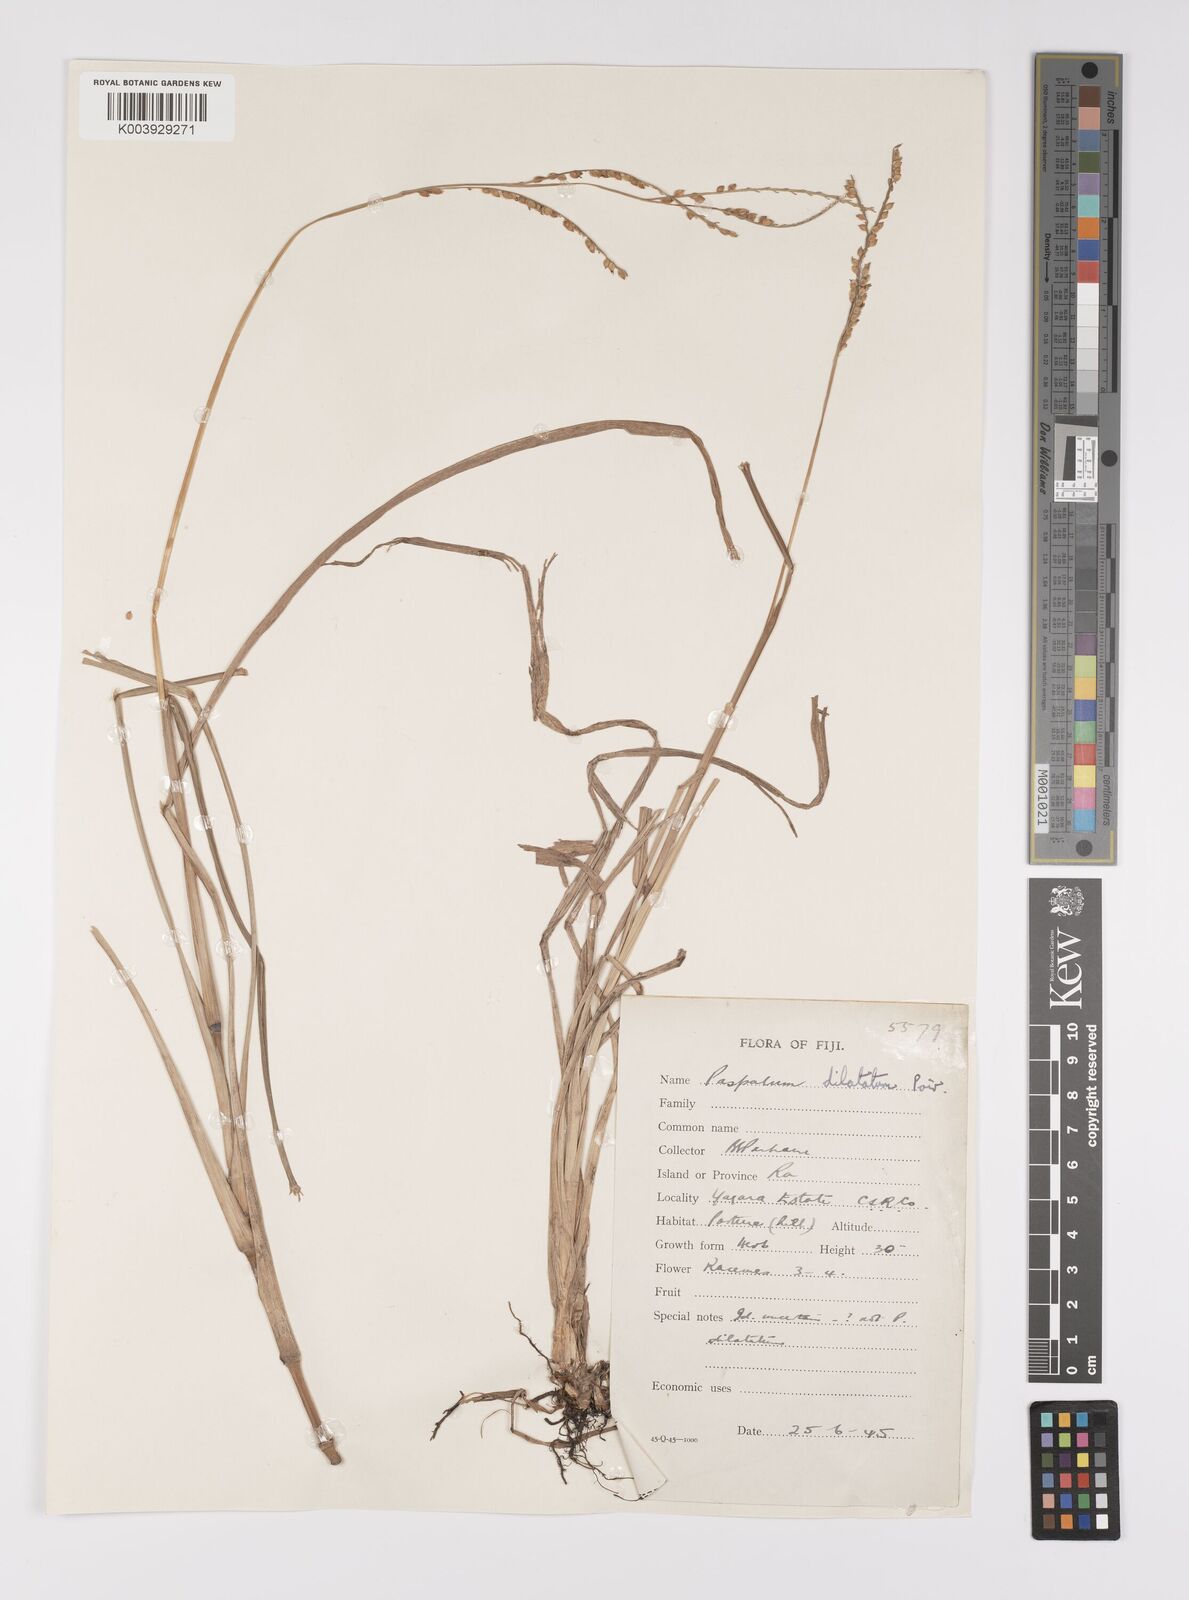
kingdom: Plantae
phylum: Tracheophyta
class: Liliopsida
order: Poales
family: Poaceae
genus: Paspalum
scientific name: Paspalum dilatatum
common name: Dallisgrass
